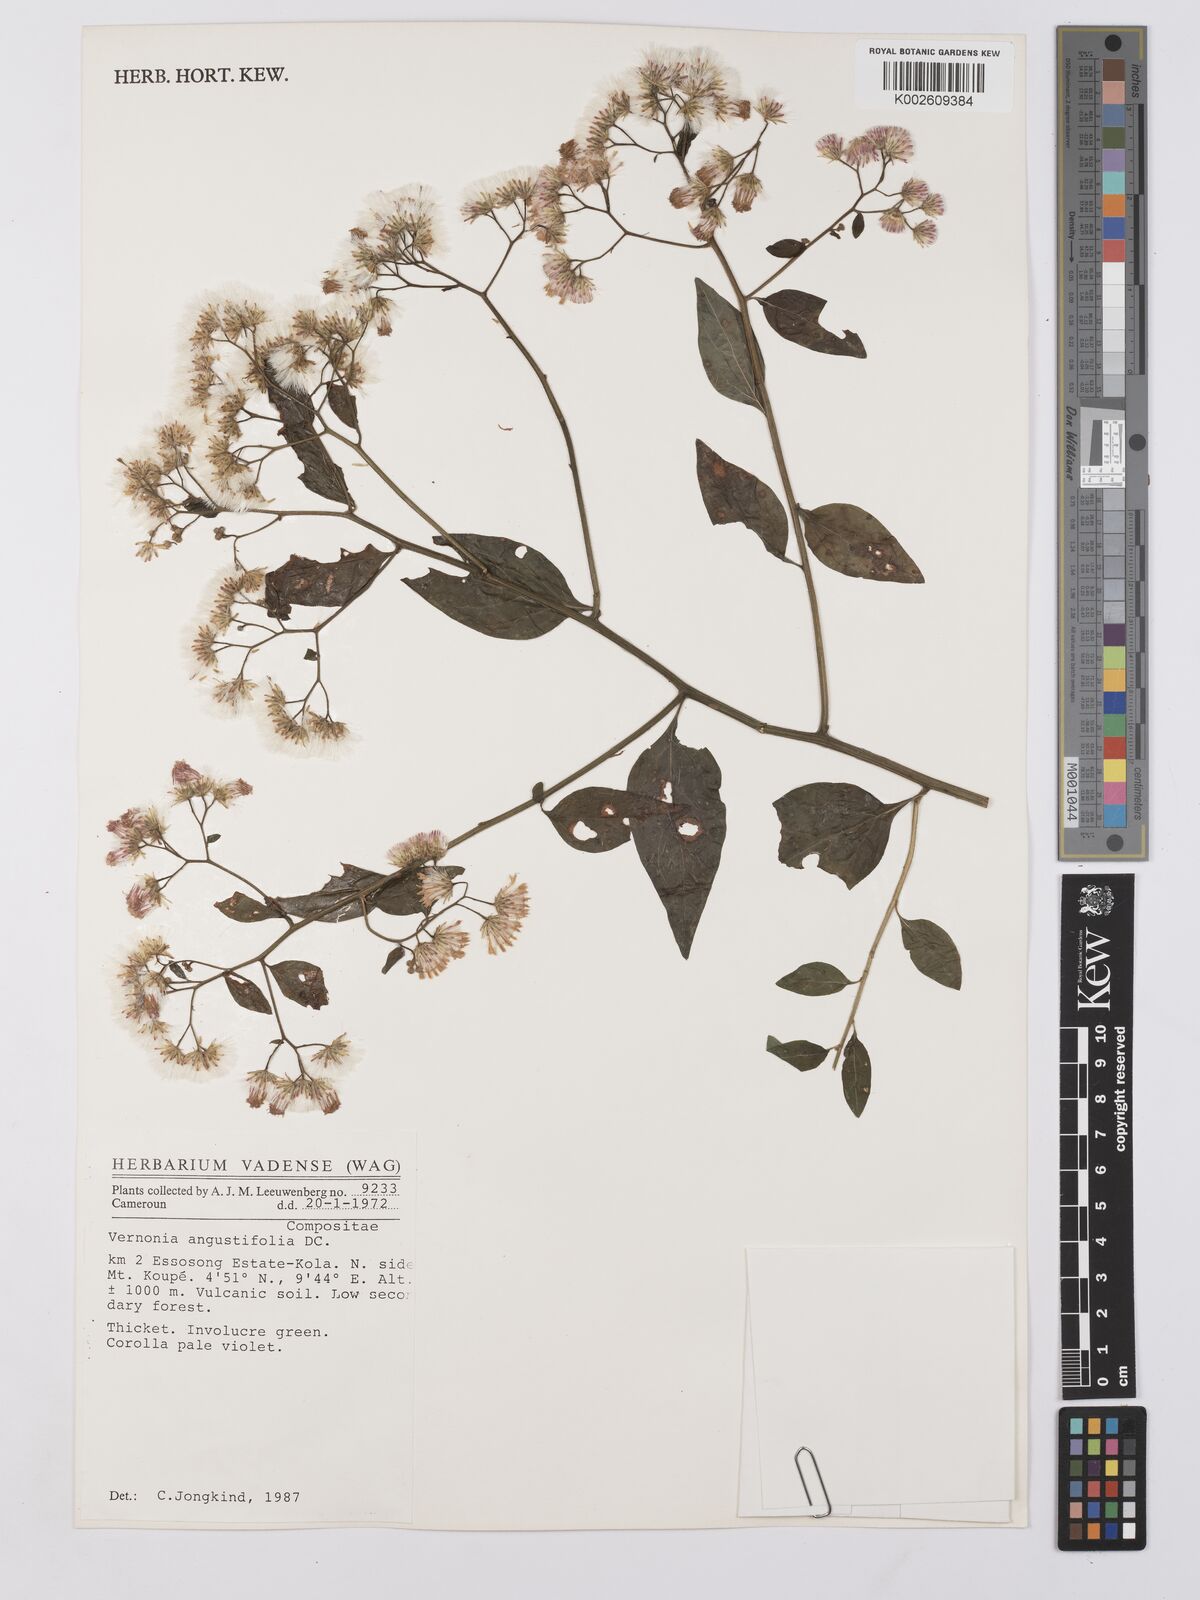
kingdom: Plantae
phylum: Tracheophyta
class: Magnoliopsida
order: Asterales
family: Asteraceae
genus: Vernonanthura
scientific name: Vernonanthura nudiflora
